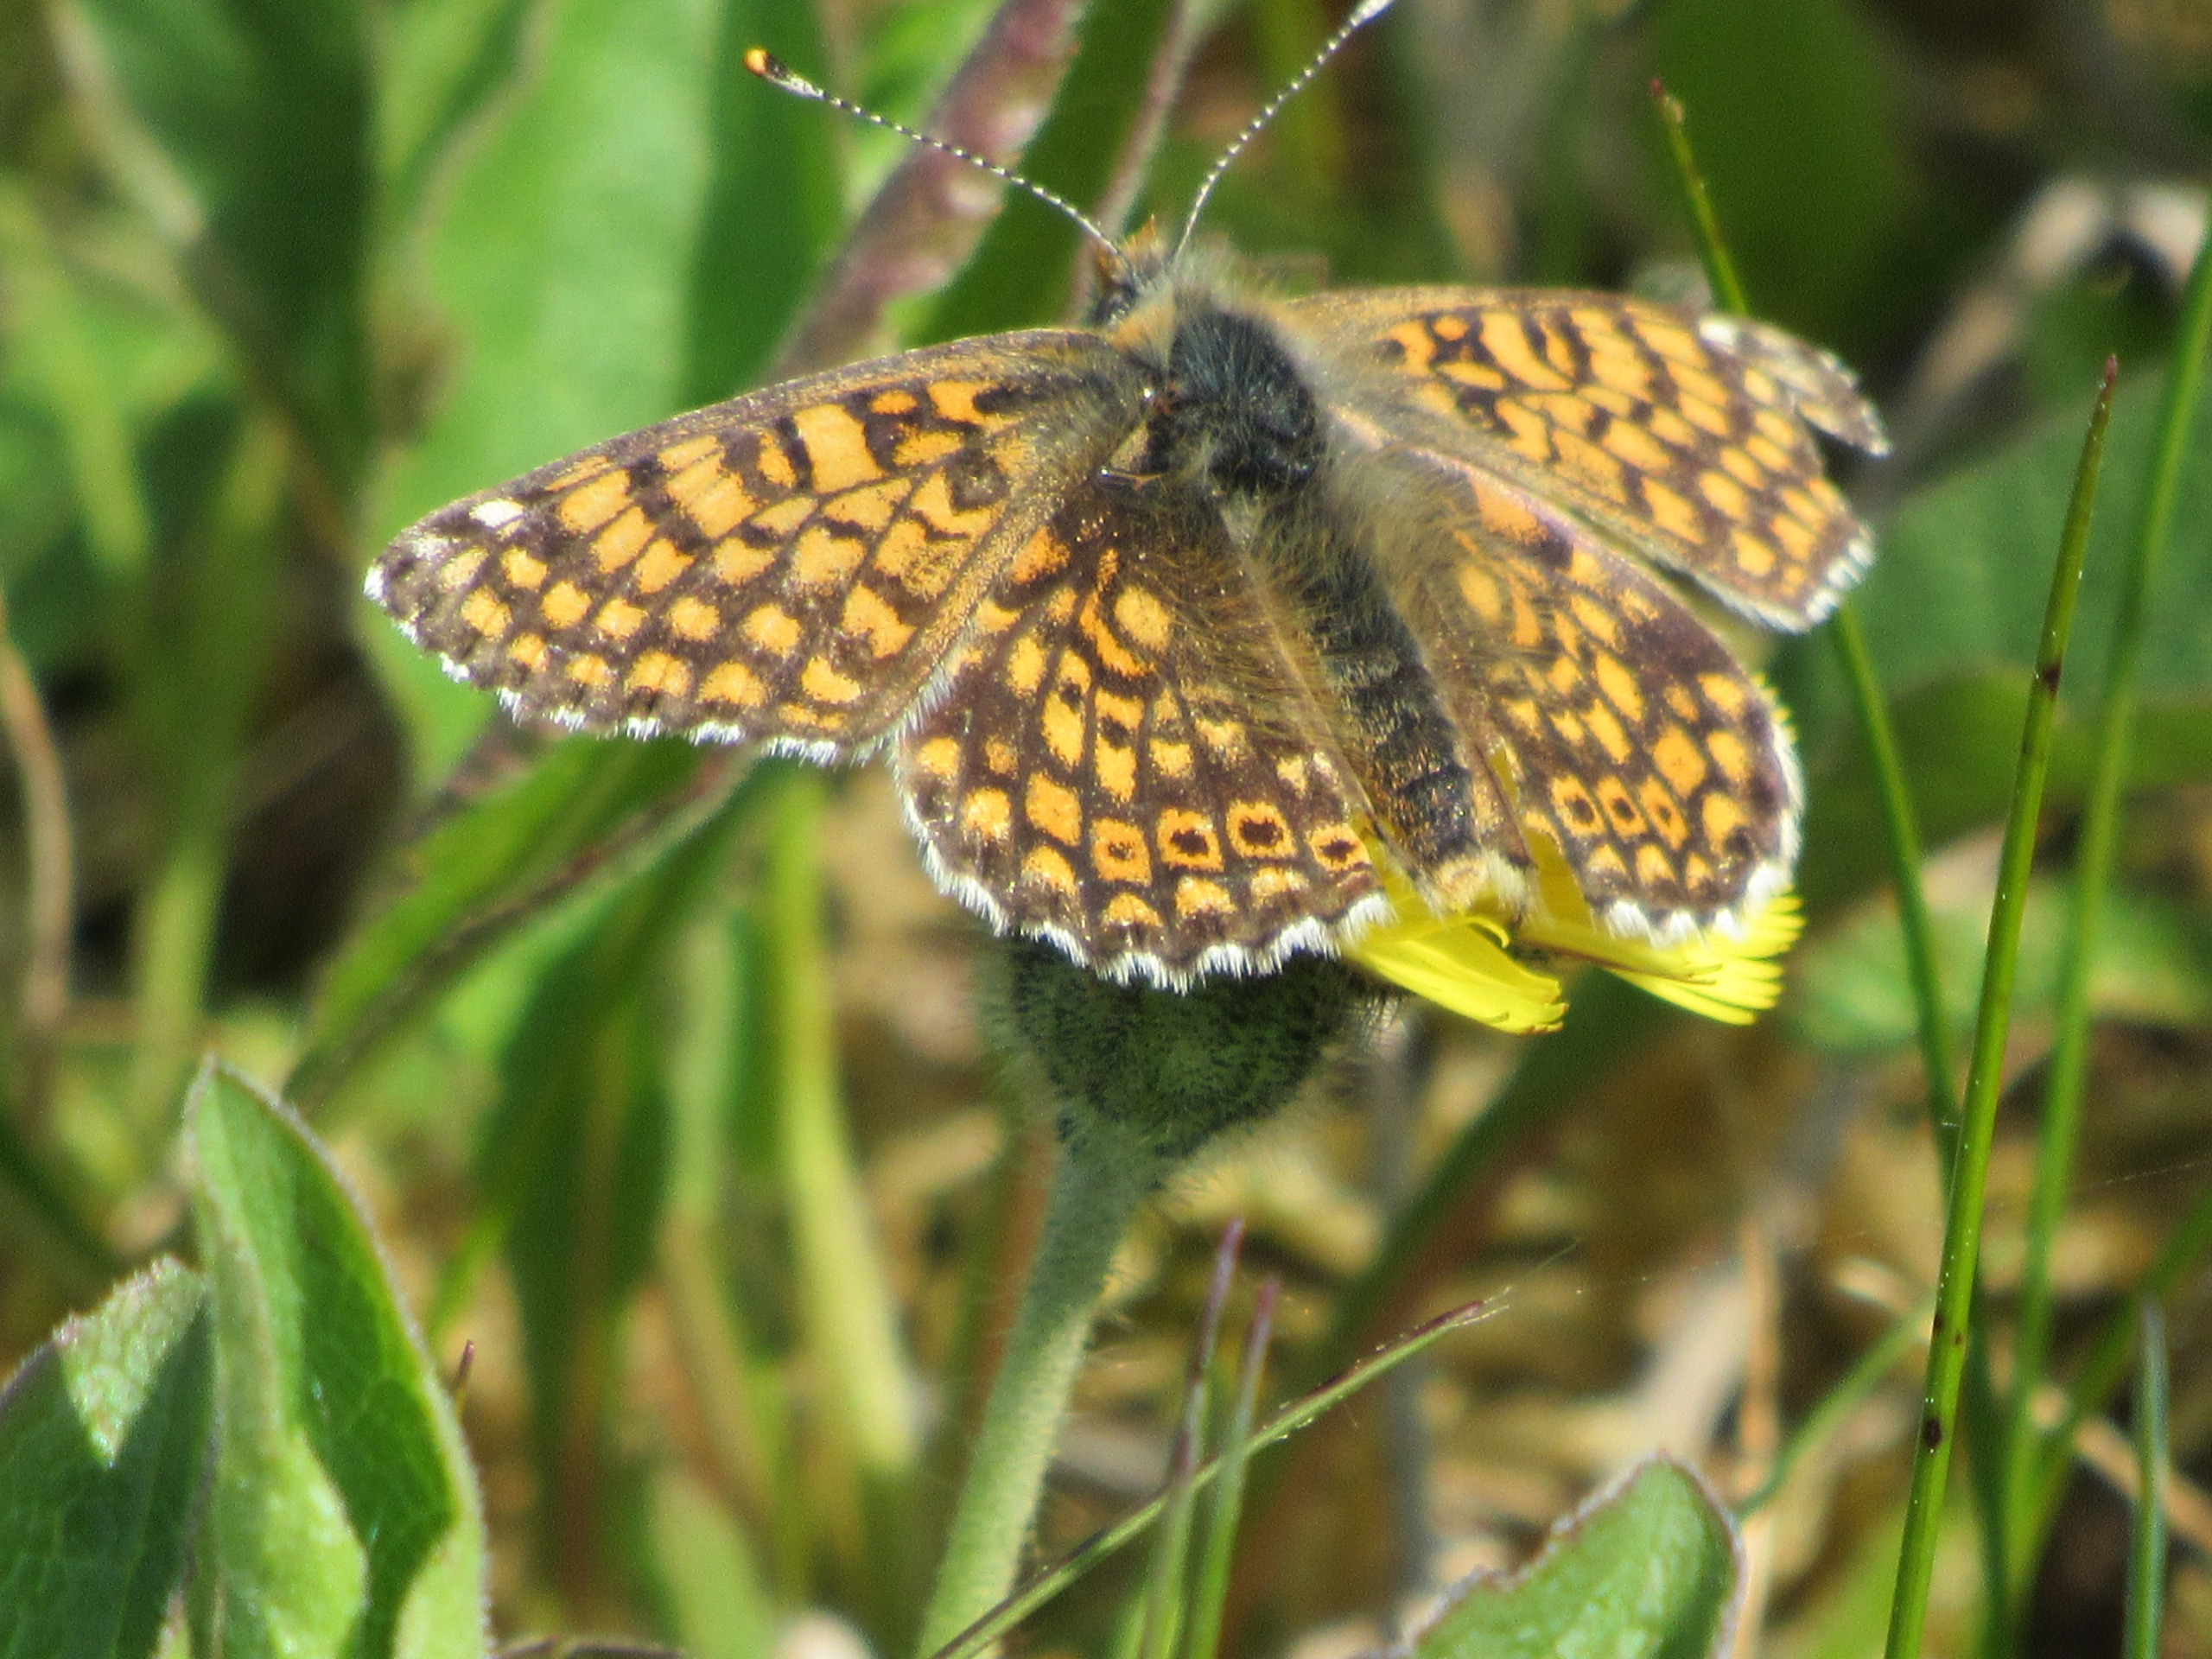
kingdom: Animalia
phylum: Arthropoda
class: Insecta
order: Lepidoptera
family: Nymphalidae
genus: Melitaea
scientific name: Melitaea cinxia
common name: Okkergul pletvinge
